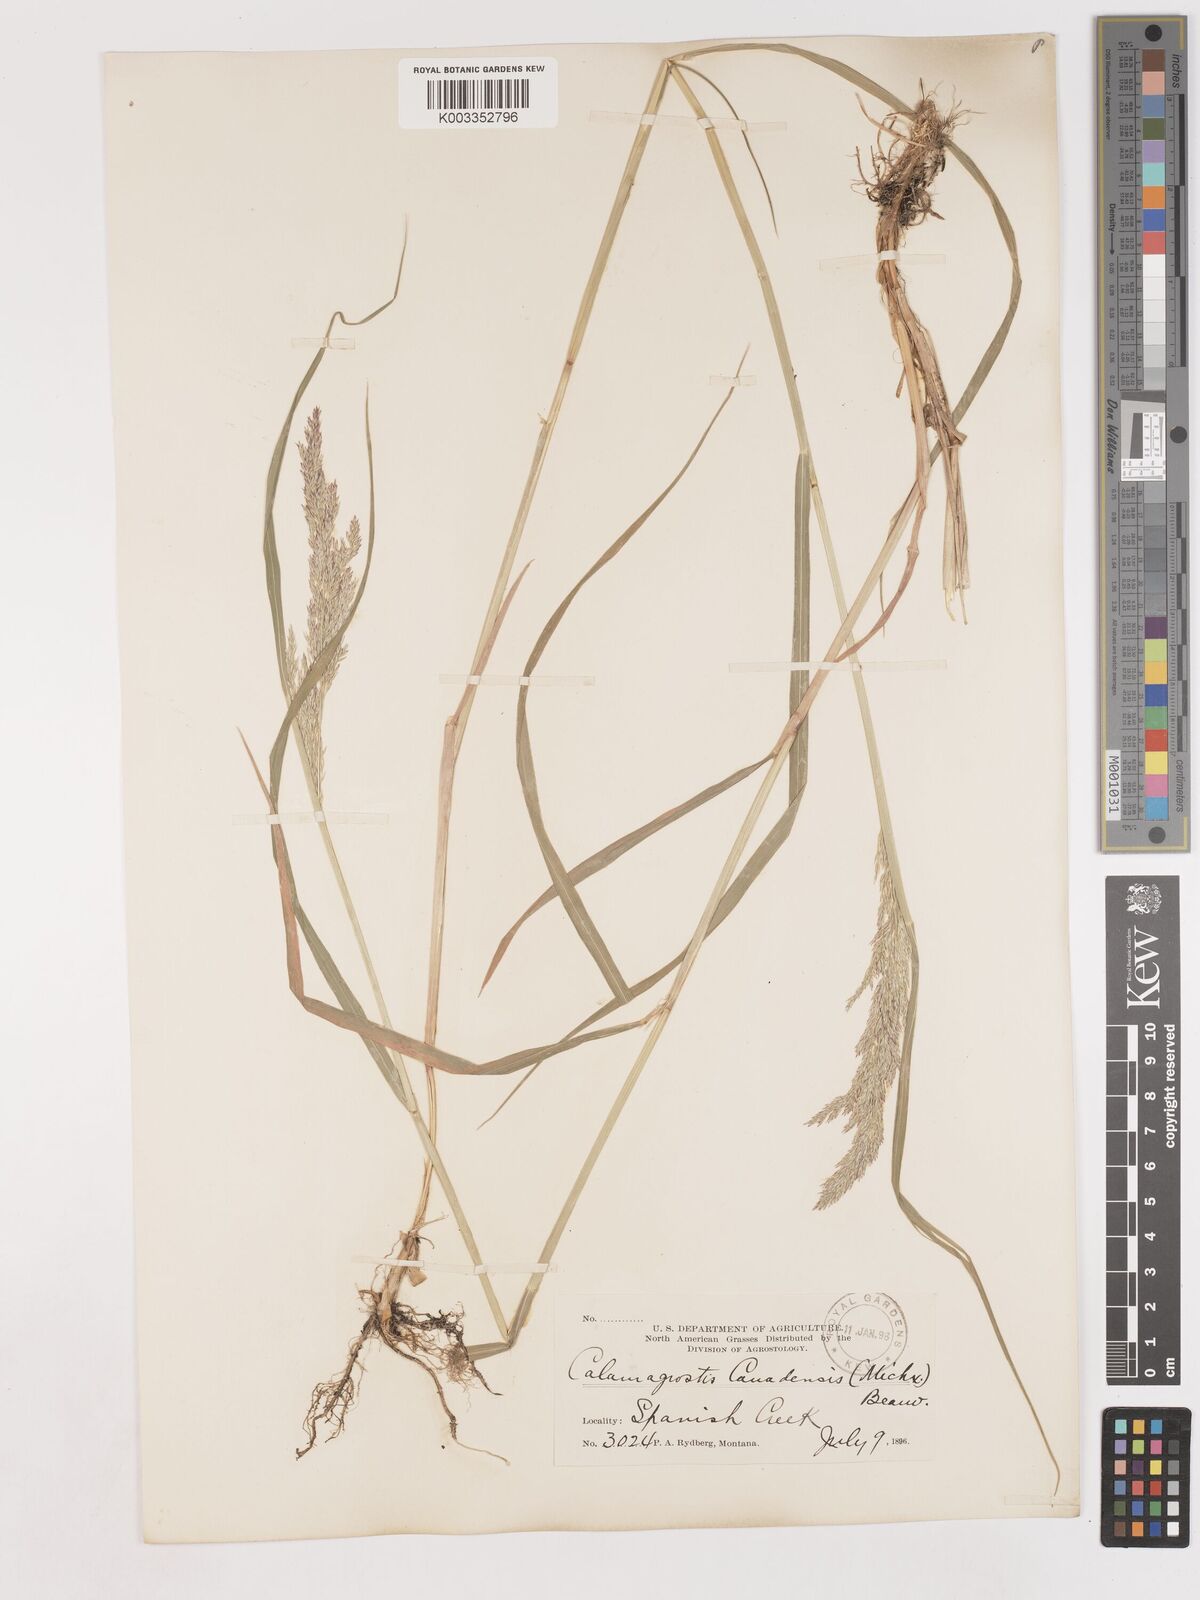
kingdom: Plantae
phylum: Tracheophyta
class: Liliopsida
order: Poales
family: Poaceae
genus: Calamagrostis
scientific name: Calamagrostis canadensis
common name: Canada bluejoint
